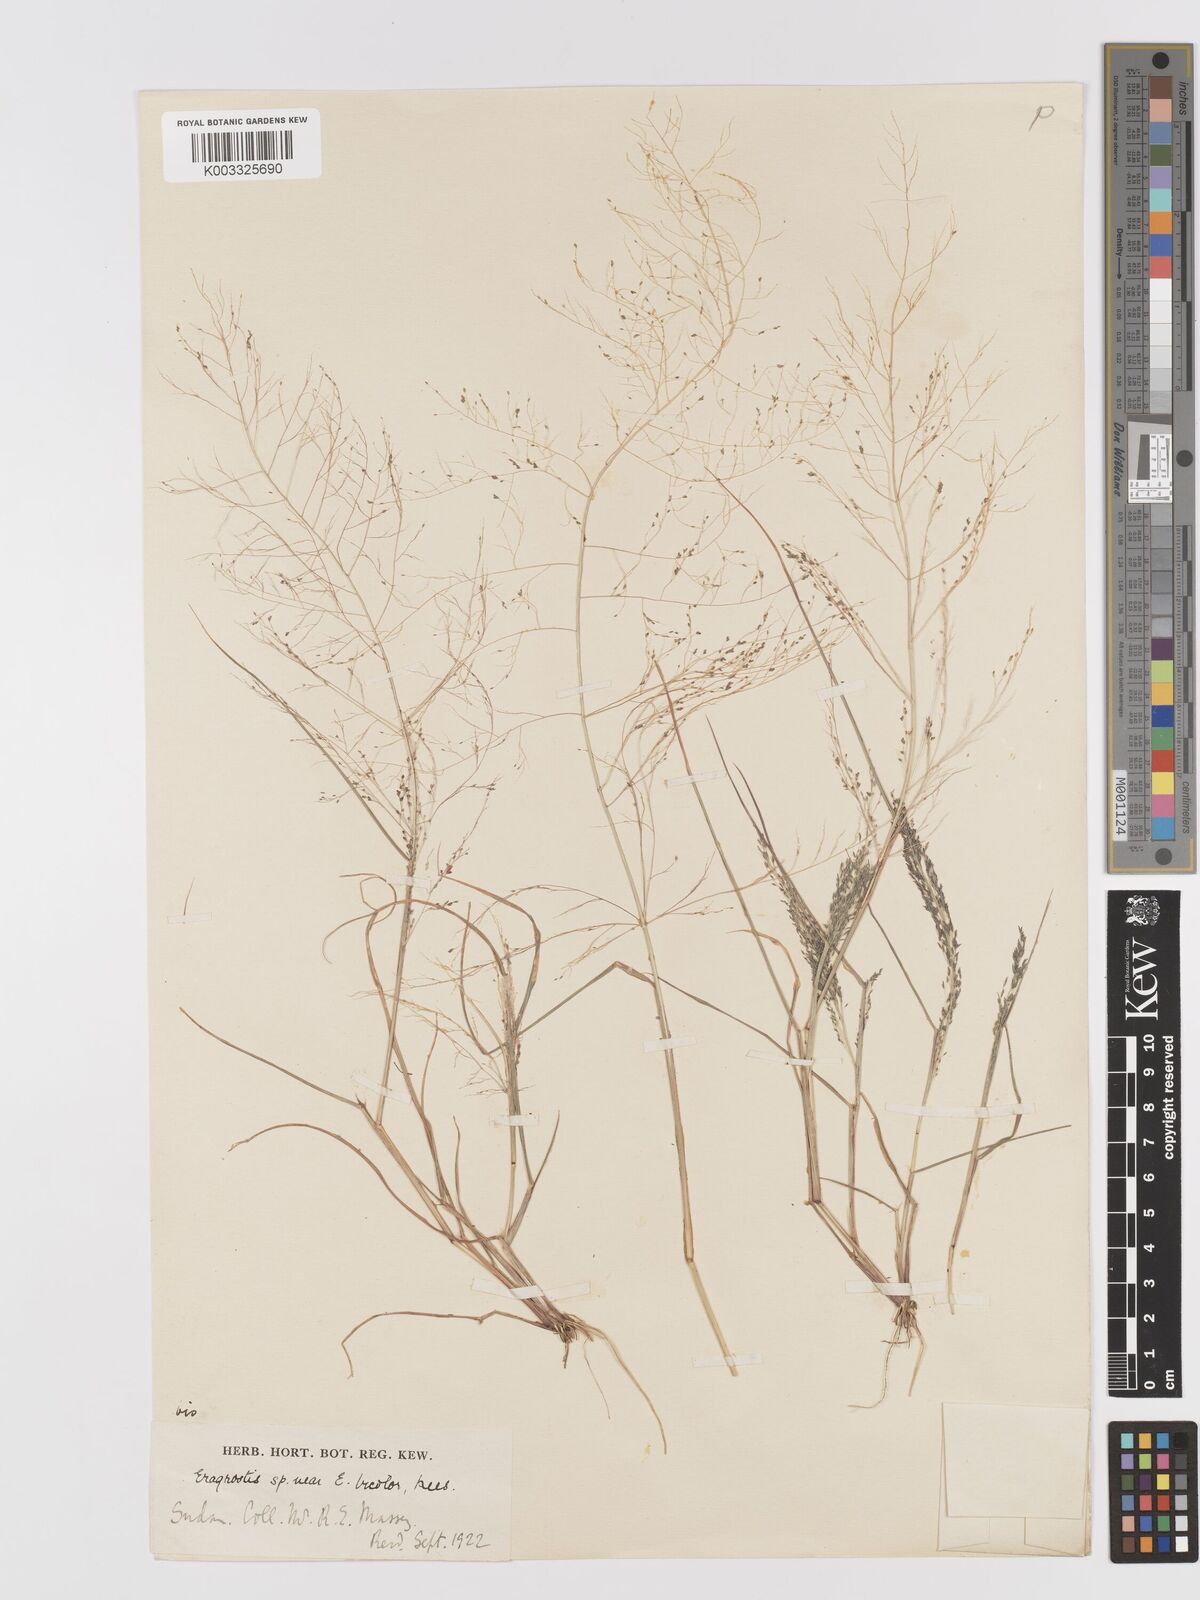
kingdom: Plantae
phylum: Tracheophyta
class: Liliopsida
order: Poales
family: Poaceae
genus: Eragrostis
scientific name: Eragrostis pilosa
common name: Indian lovegrass
